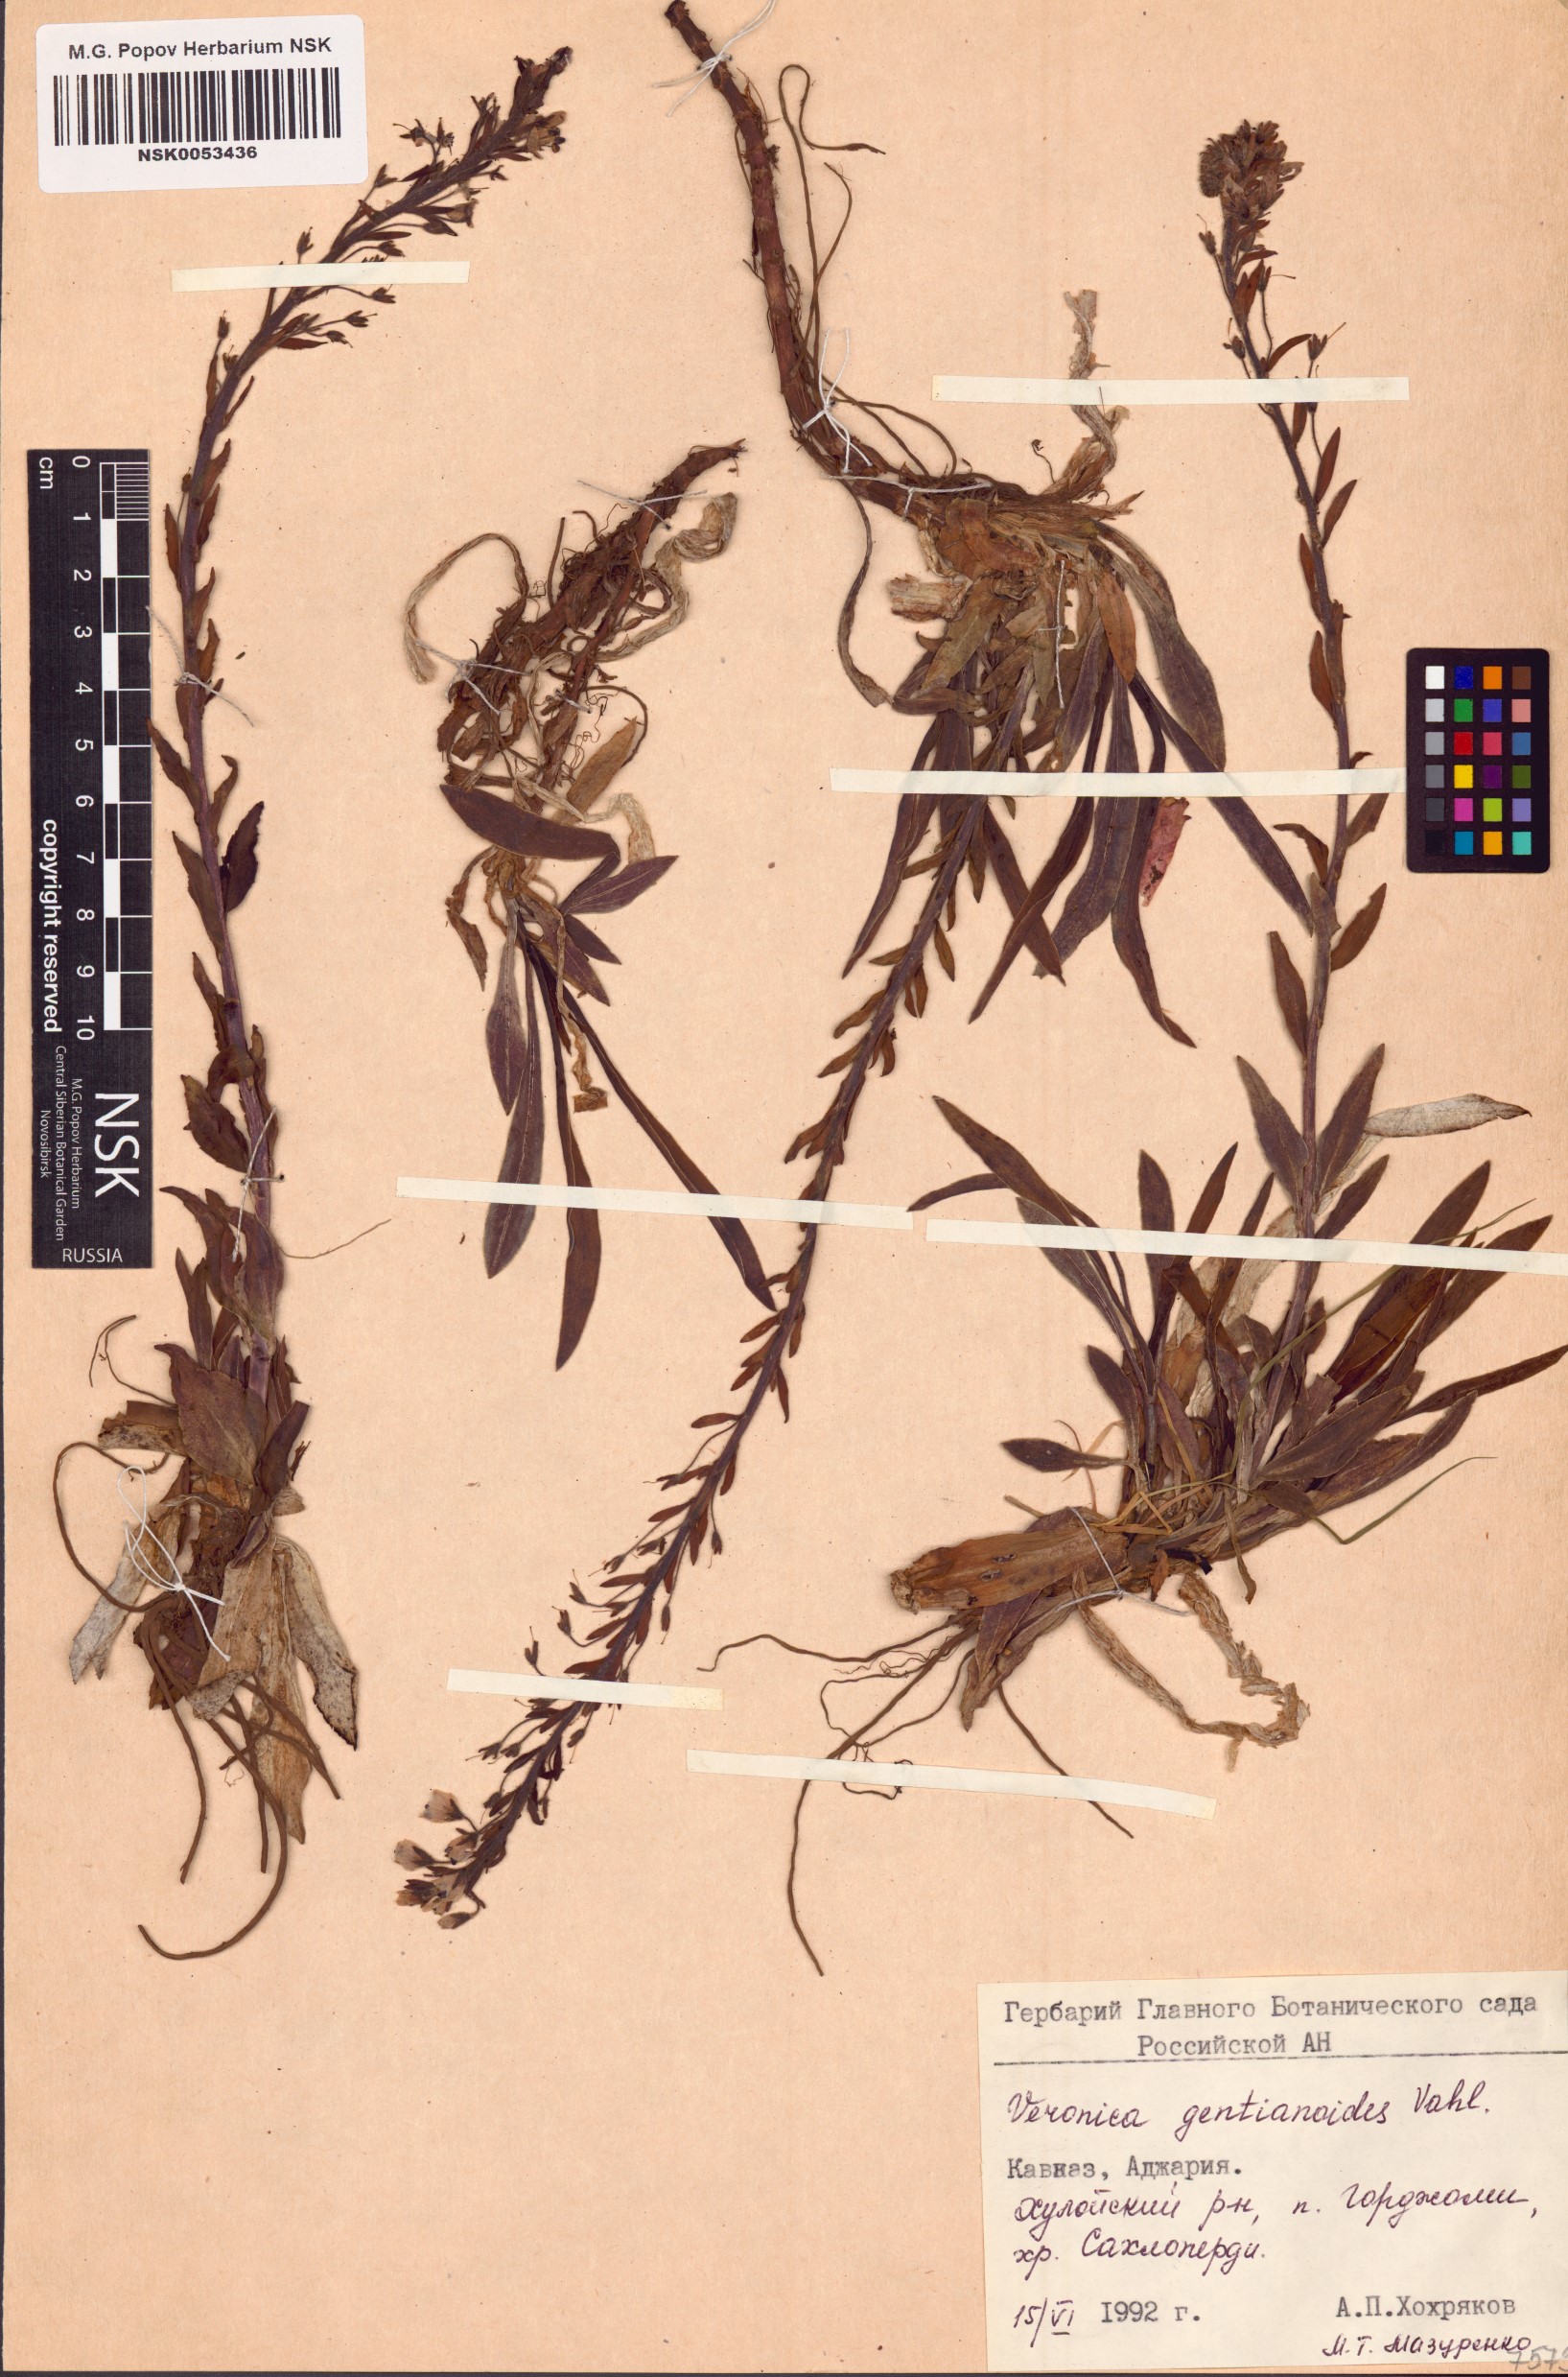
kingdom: Plantae
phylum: Tracheophyta
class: Magnoliopsida
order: Lamiales
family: Plantaginaceae
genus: Veronica
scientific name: Veronica gentianoides
